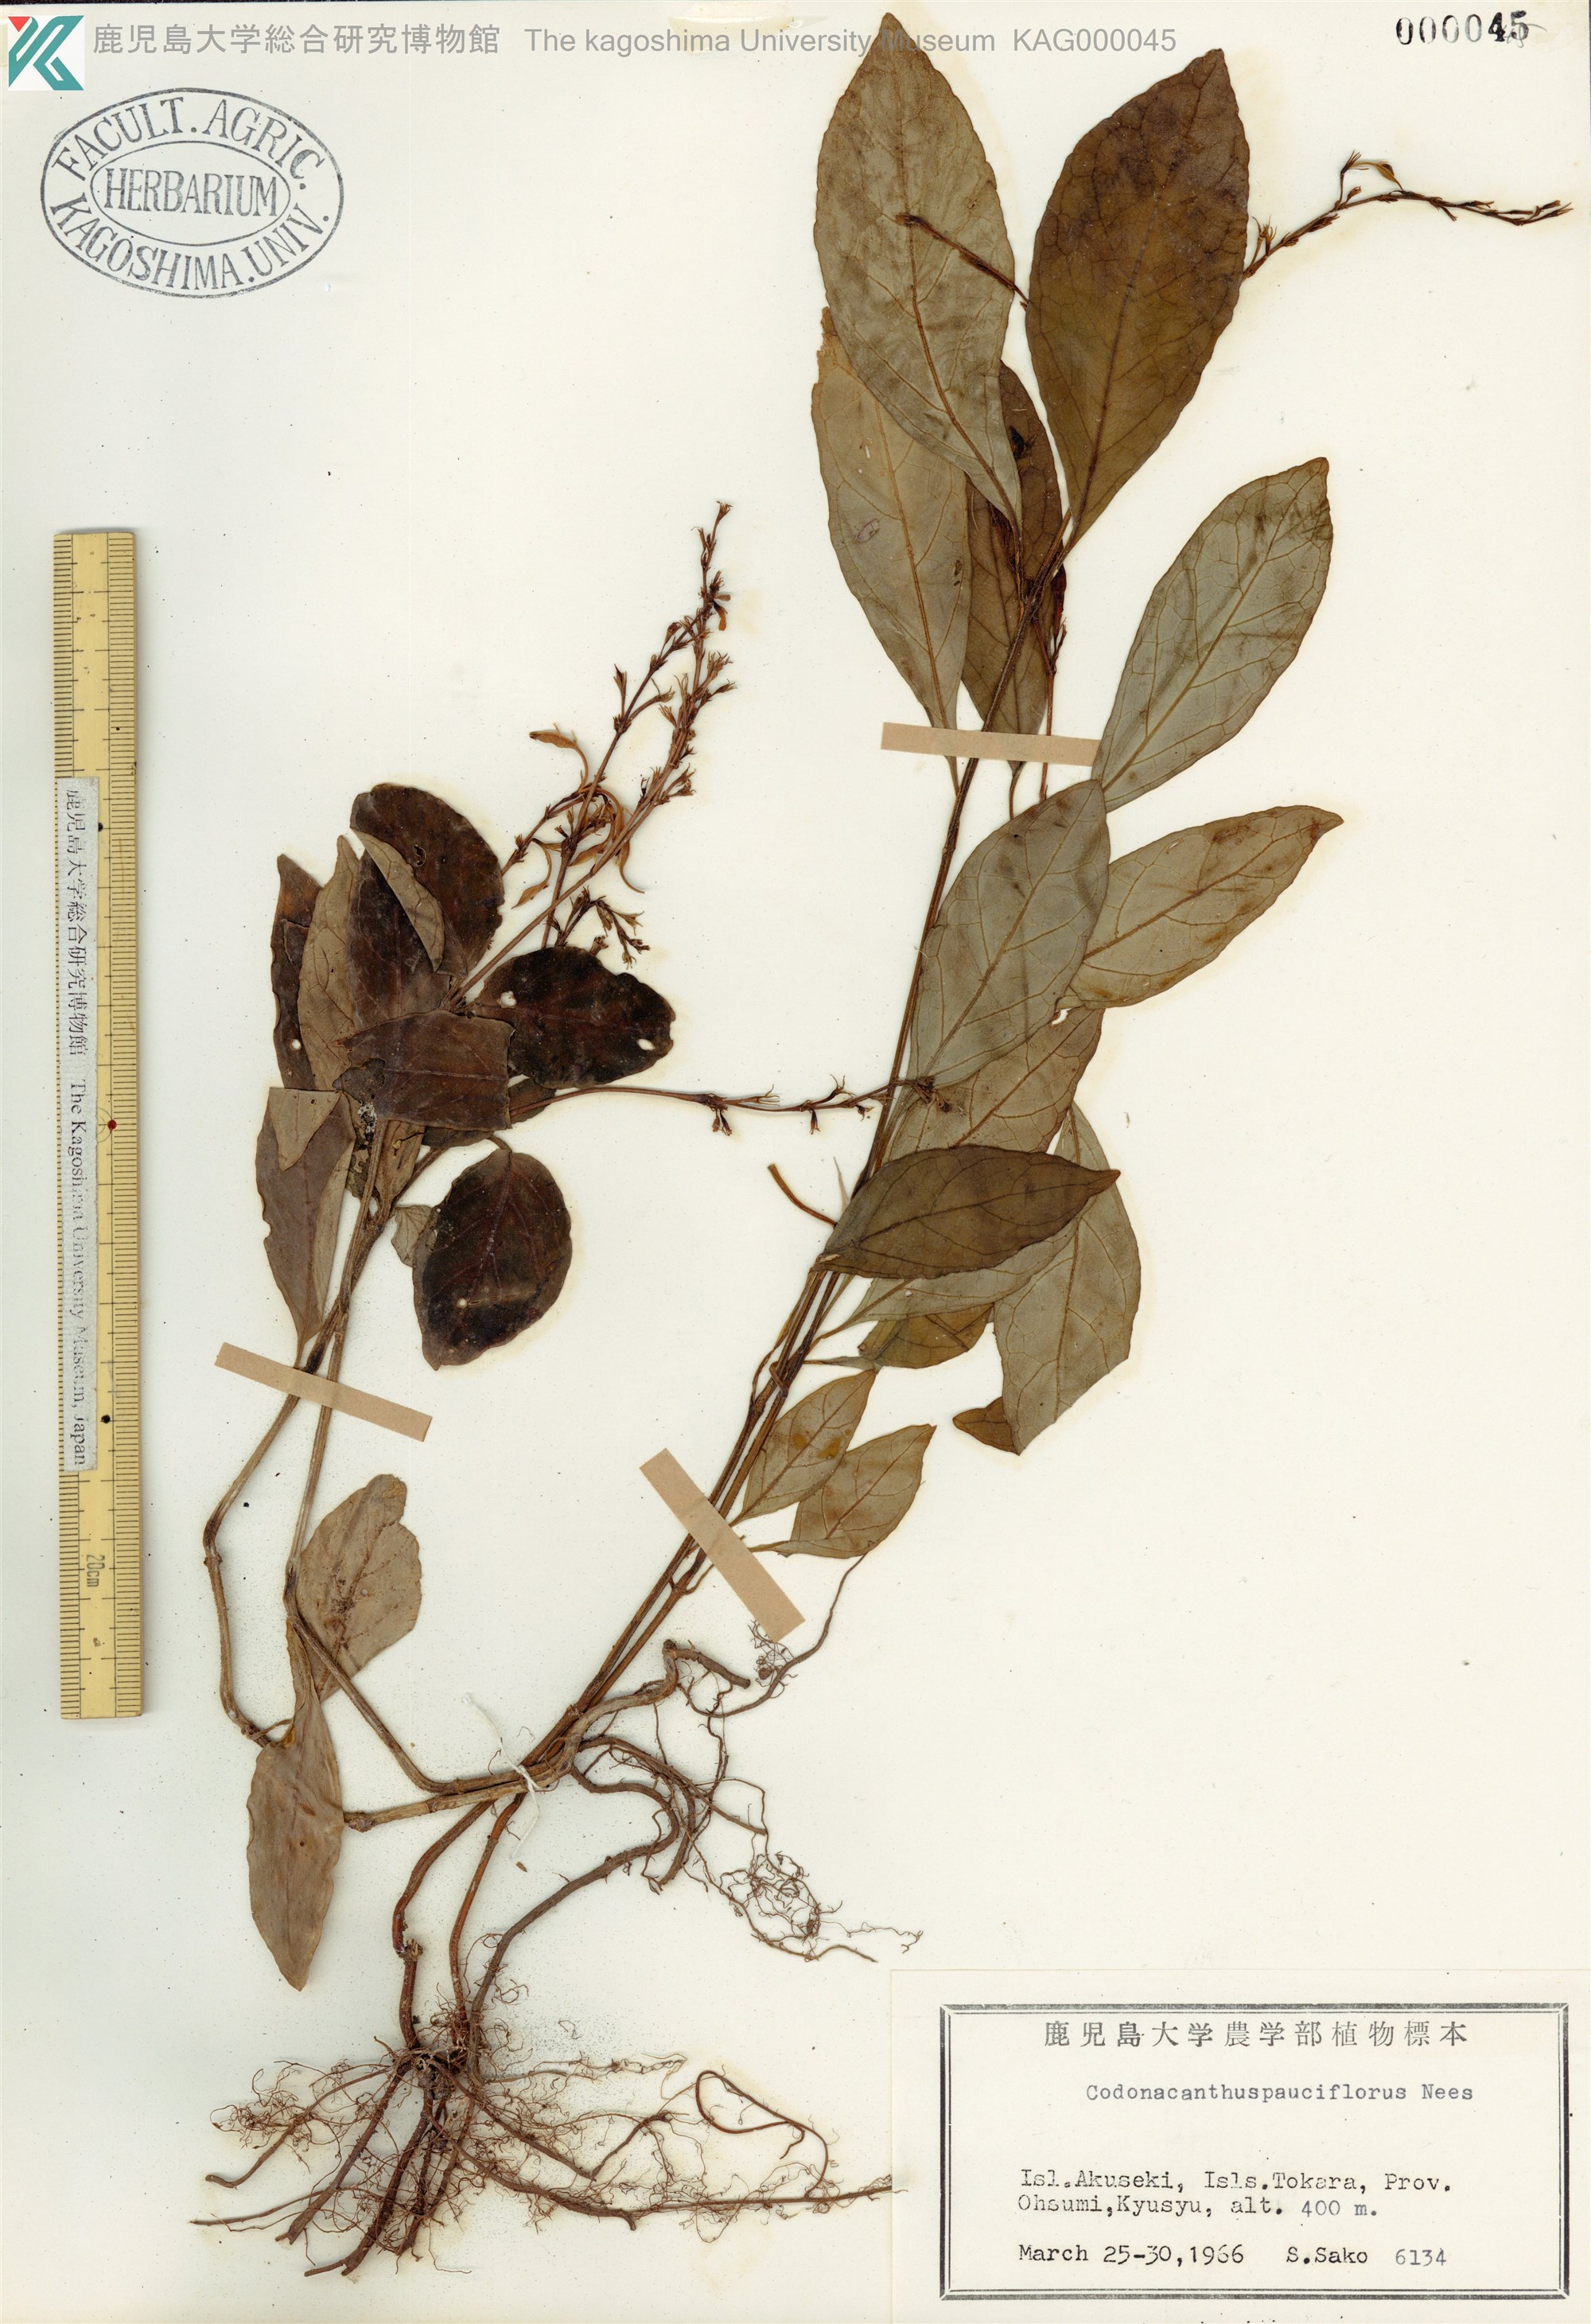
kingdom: Plantae
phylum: Tracheophyta
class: Magnoliopsida
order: Lamiales
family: Acanthaceae
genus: Codonacanthus
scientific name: Codonacanthus pauciflorus
